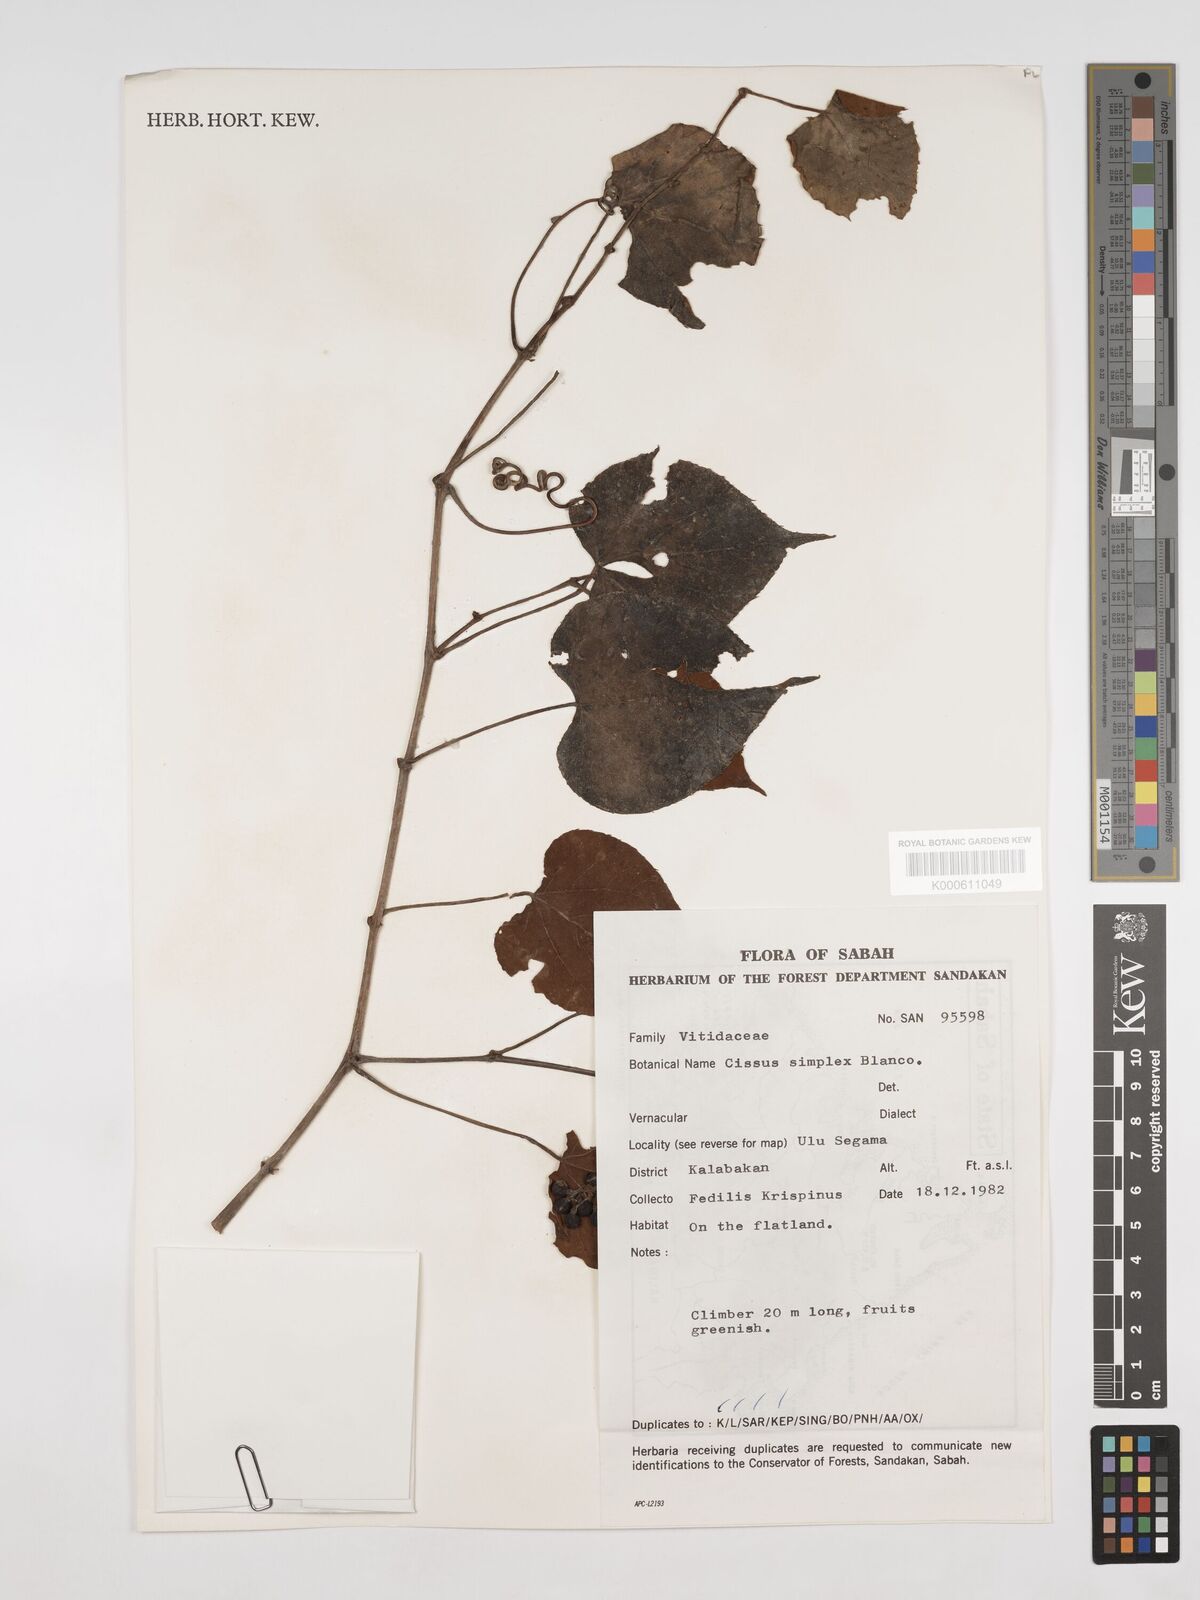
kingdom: Plantae
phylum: Tracheophyta
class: Magnoliopsida
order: Vitales
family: Vitaceae
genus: Cissus
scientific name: Cissus aristata
